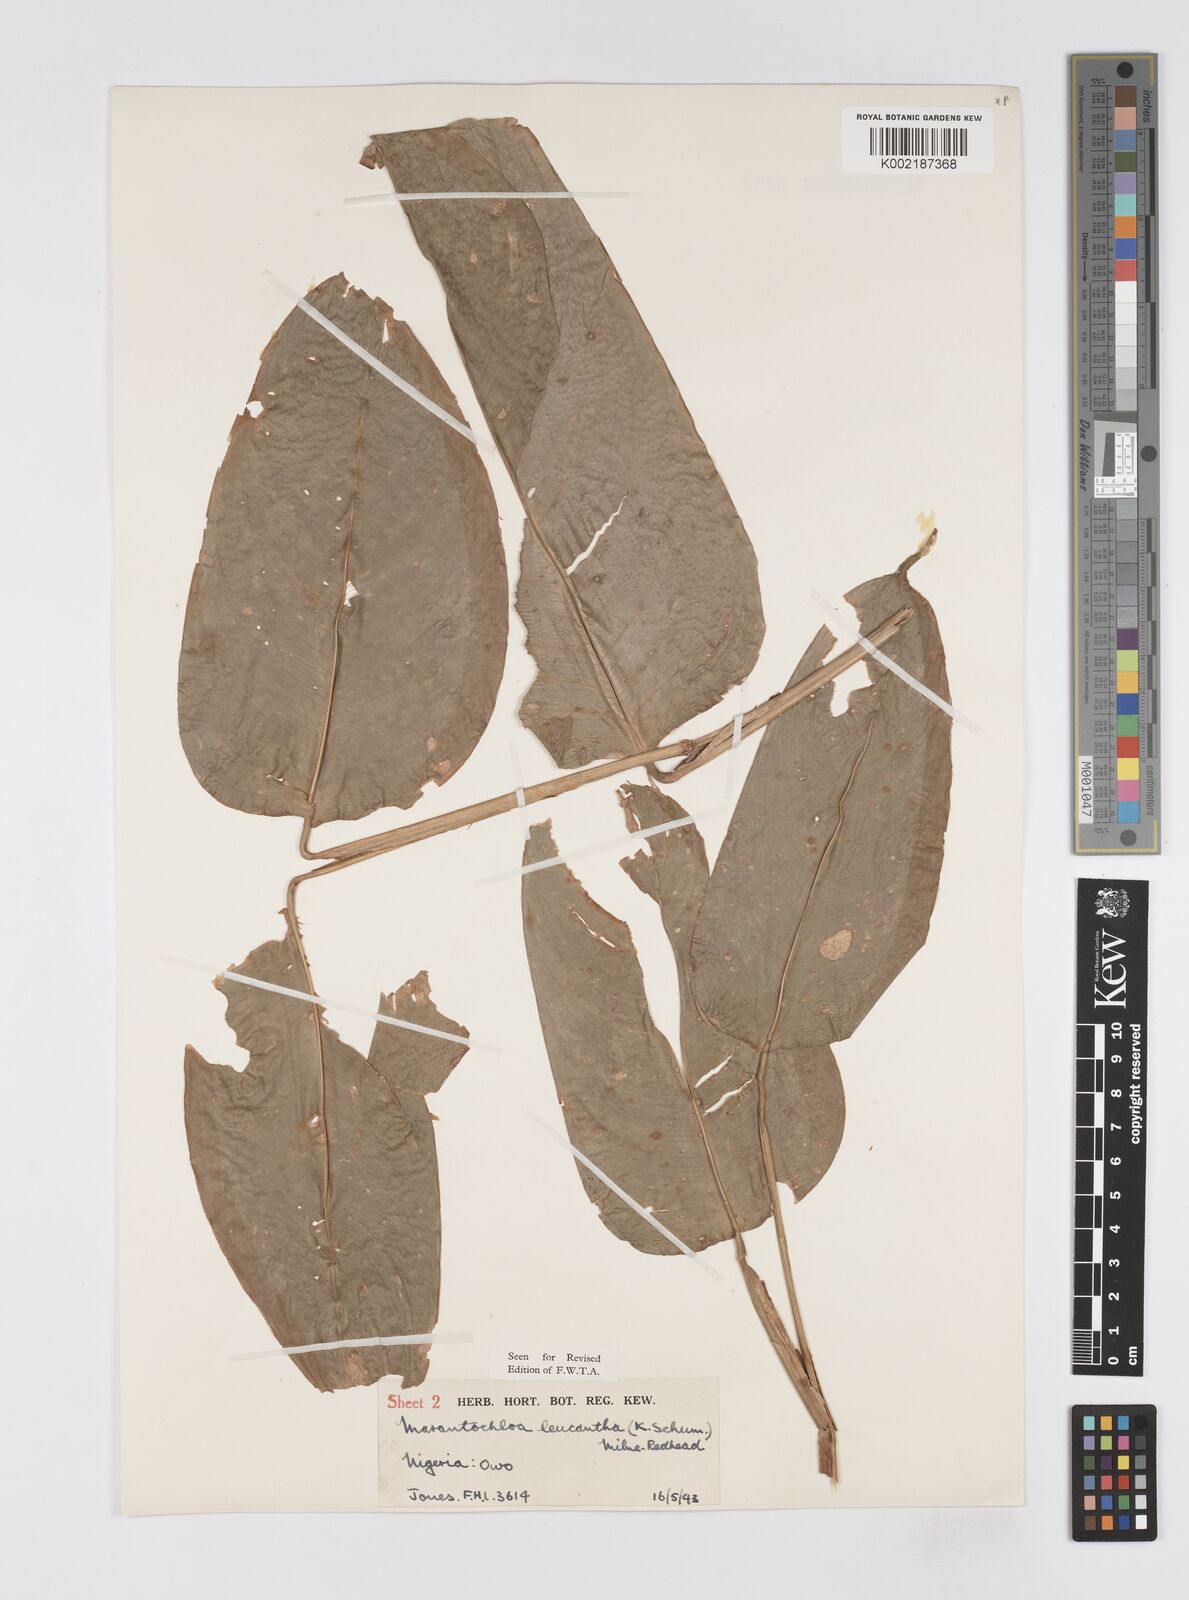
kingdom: Plantae
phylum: Tracheophyta
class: Liliopsida
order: Zingiberales
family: Marantaceae
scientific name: Marantaceae
